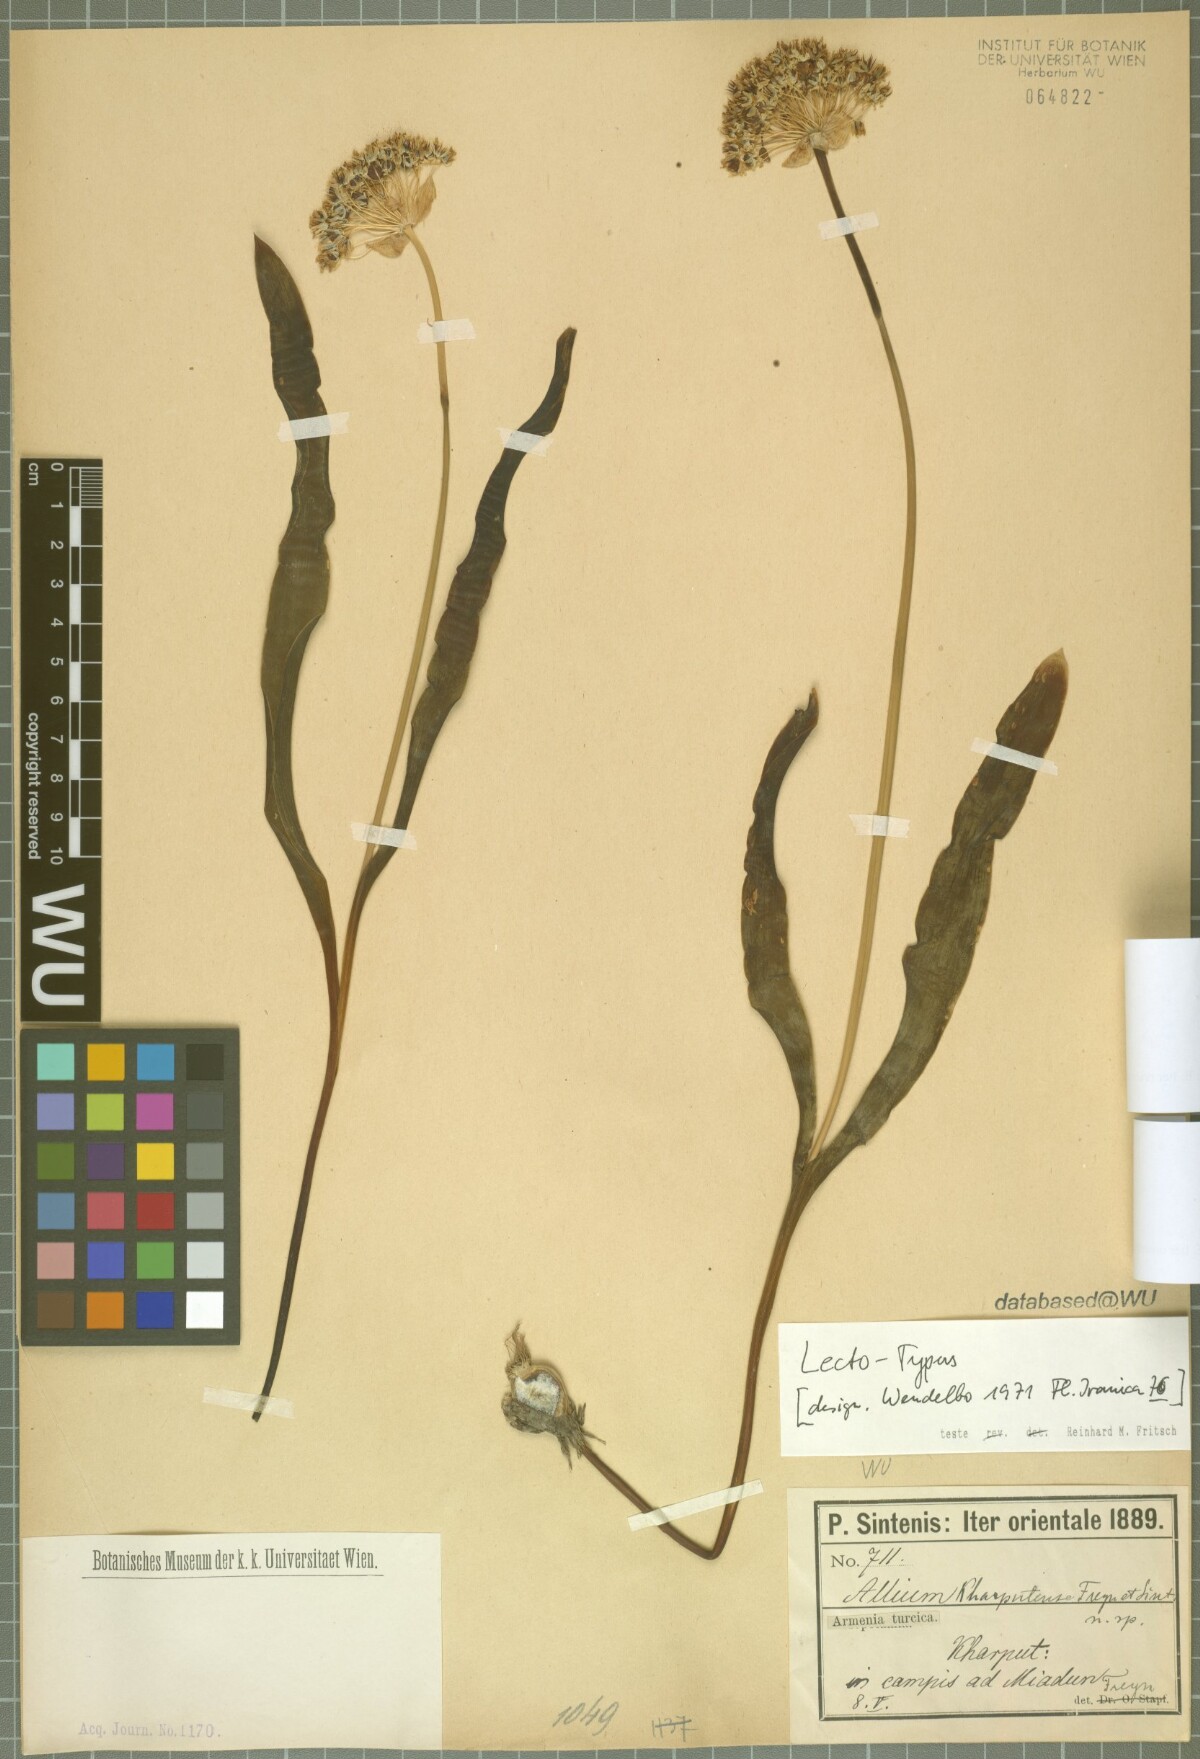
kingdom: Plantae
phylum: Tracheophyta
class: Liliopsida
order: Asparagales
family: Amaryllidaceae
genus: Allium
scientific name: Allium kharputense
